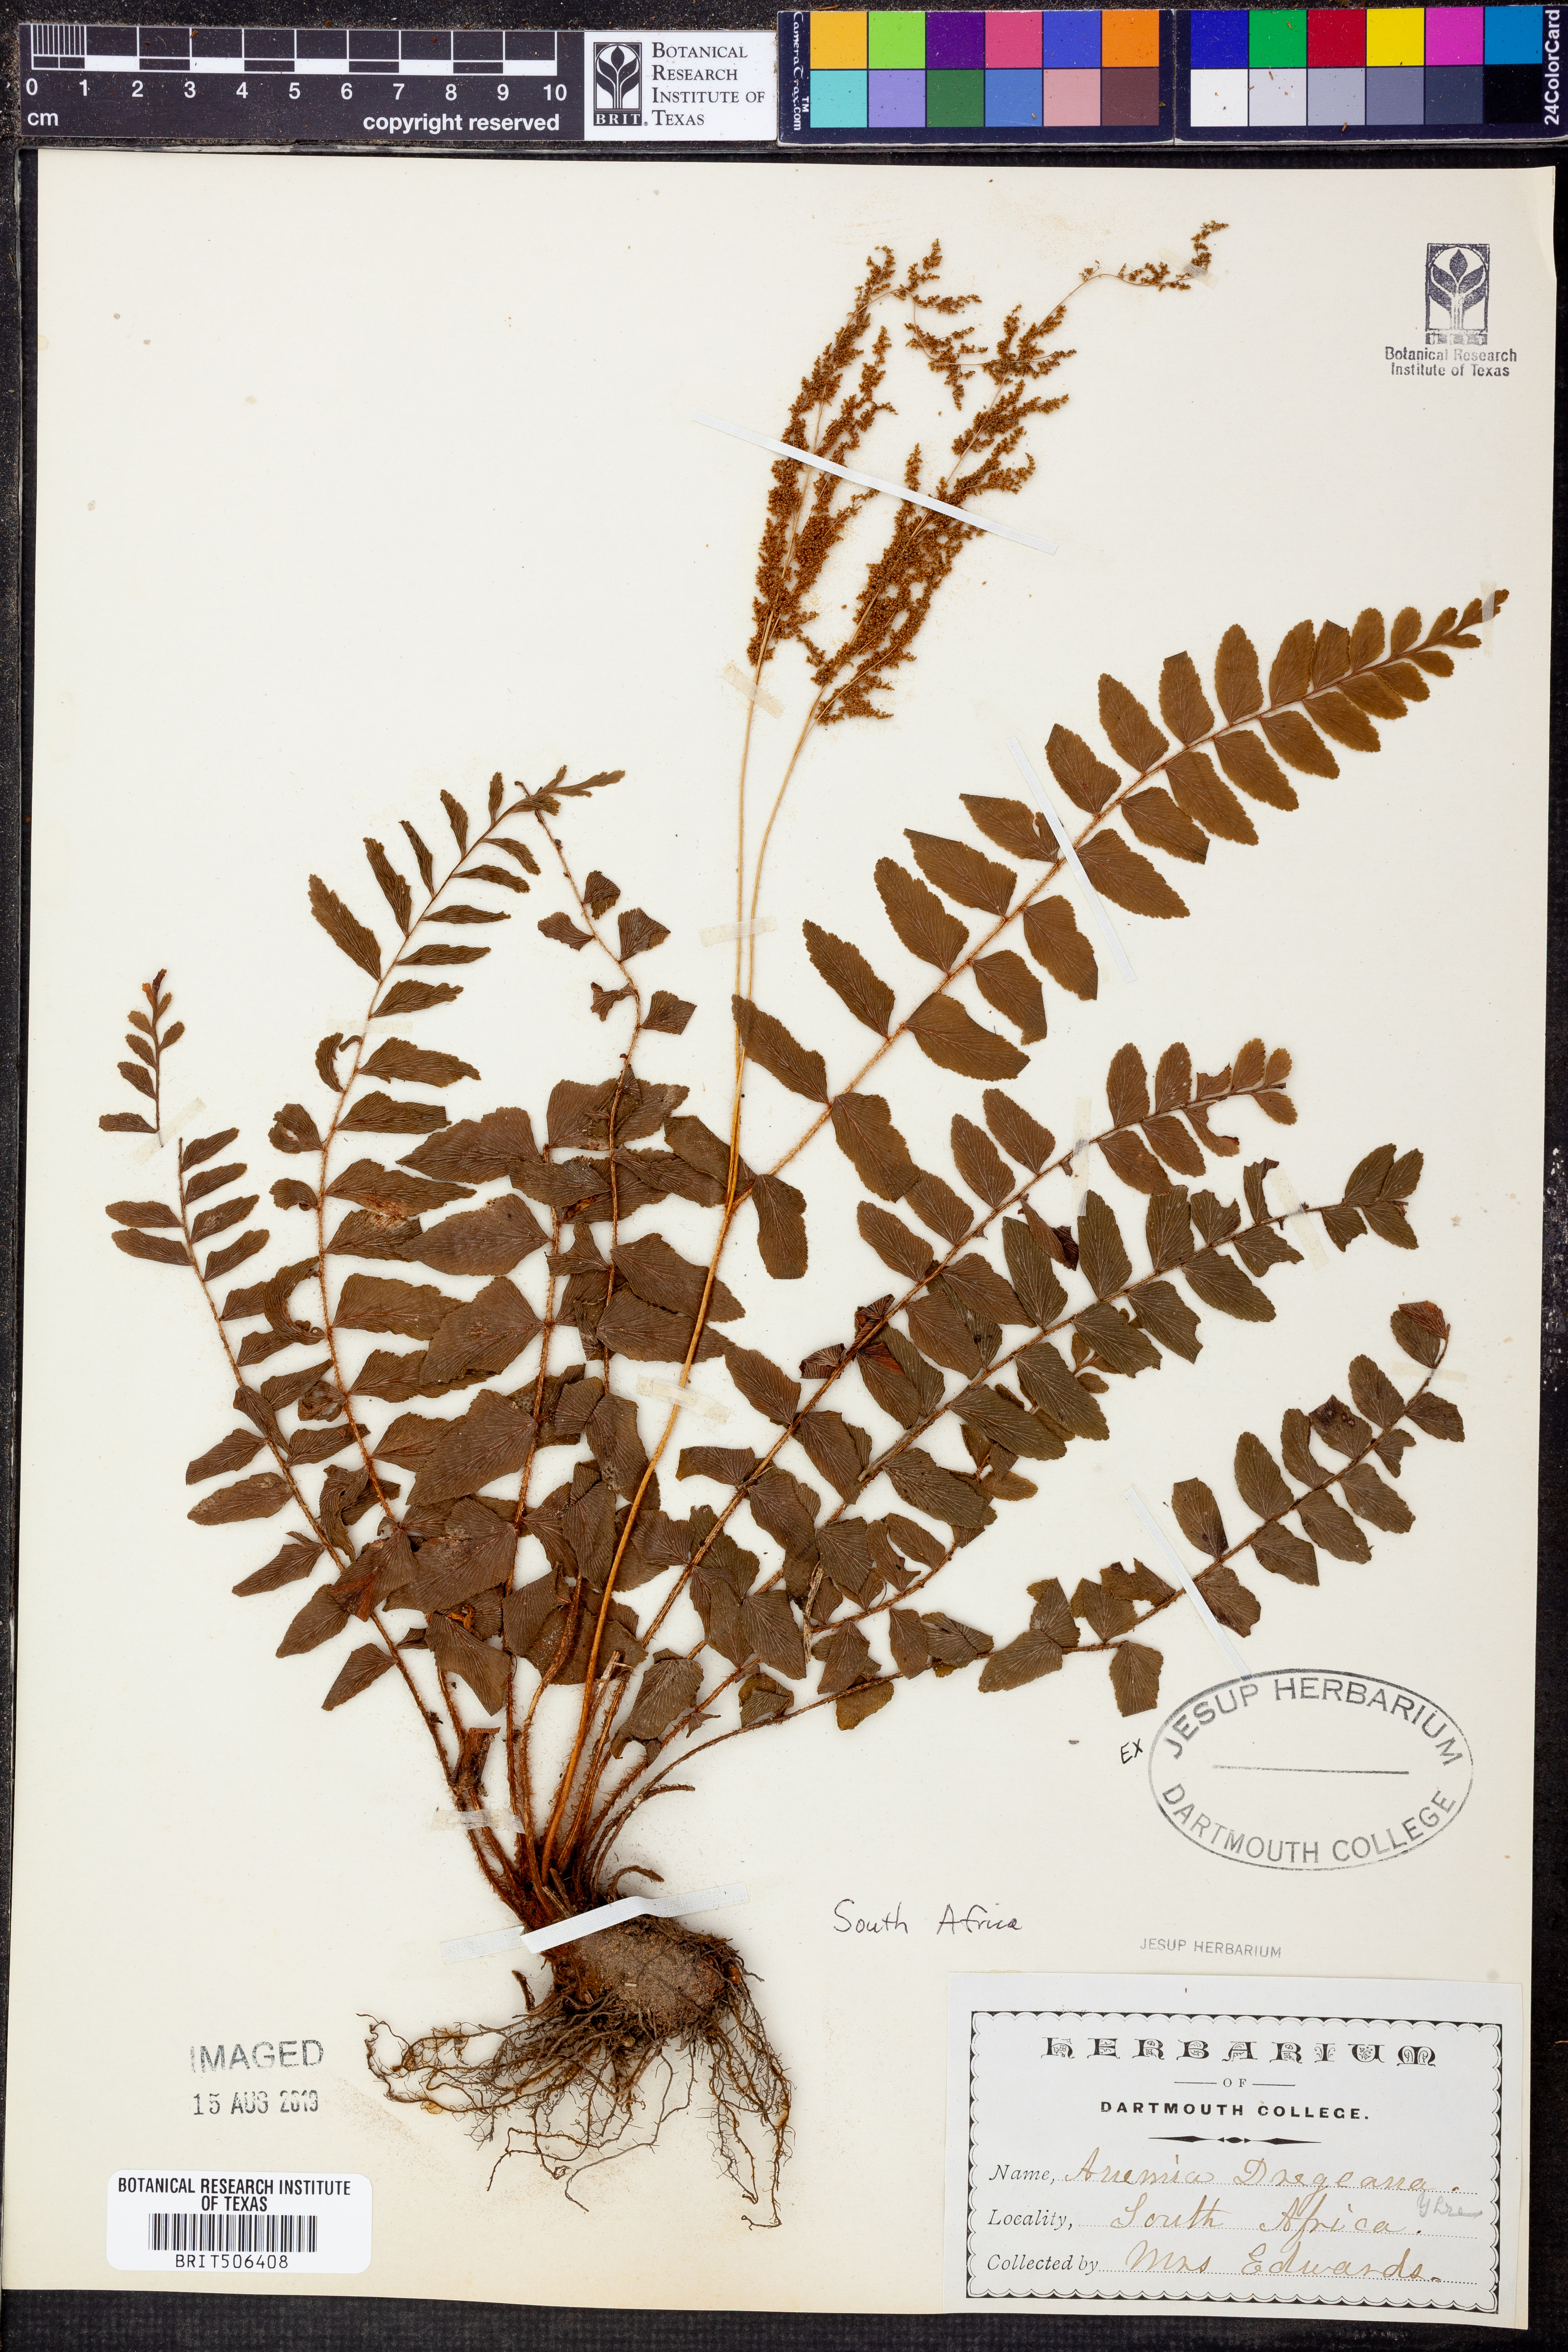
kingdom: Plantae
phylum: Tracheophyta
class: Polypodiopsida
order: Schizaeales
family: Anemiaceae
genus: Anemia
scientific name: Anemia dregeana
